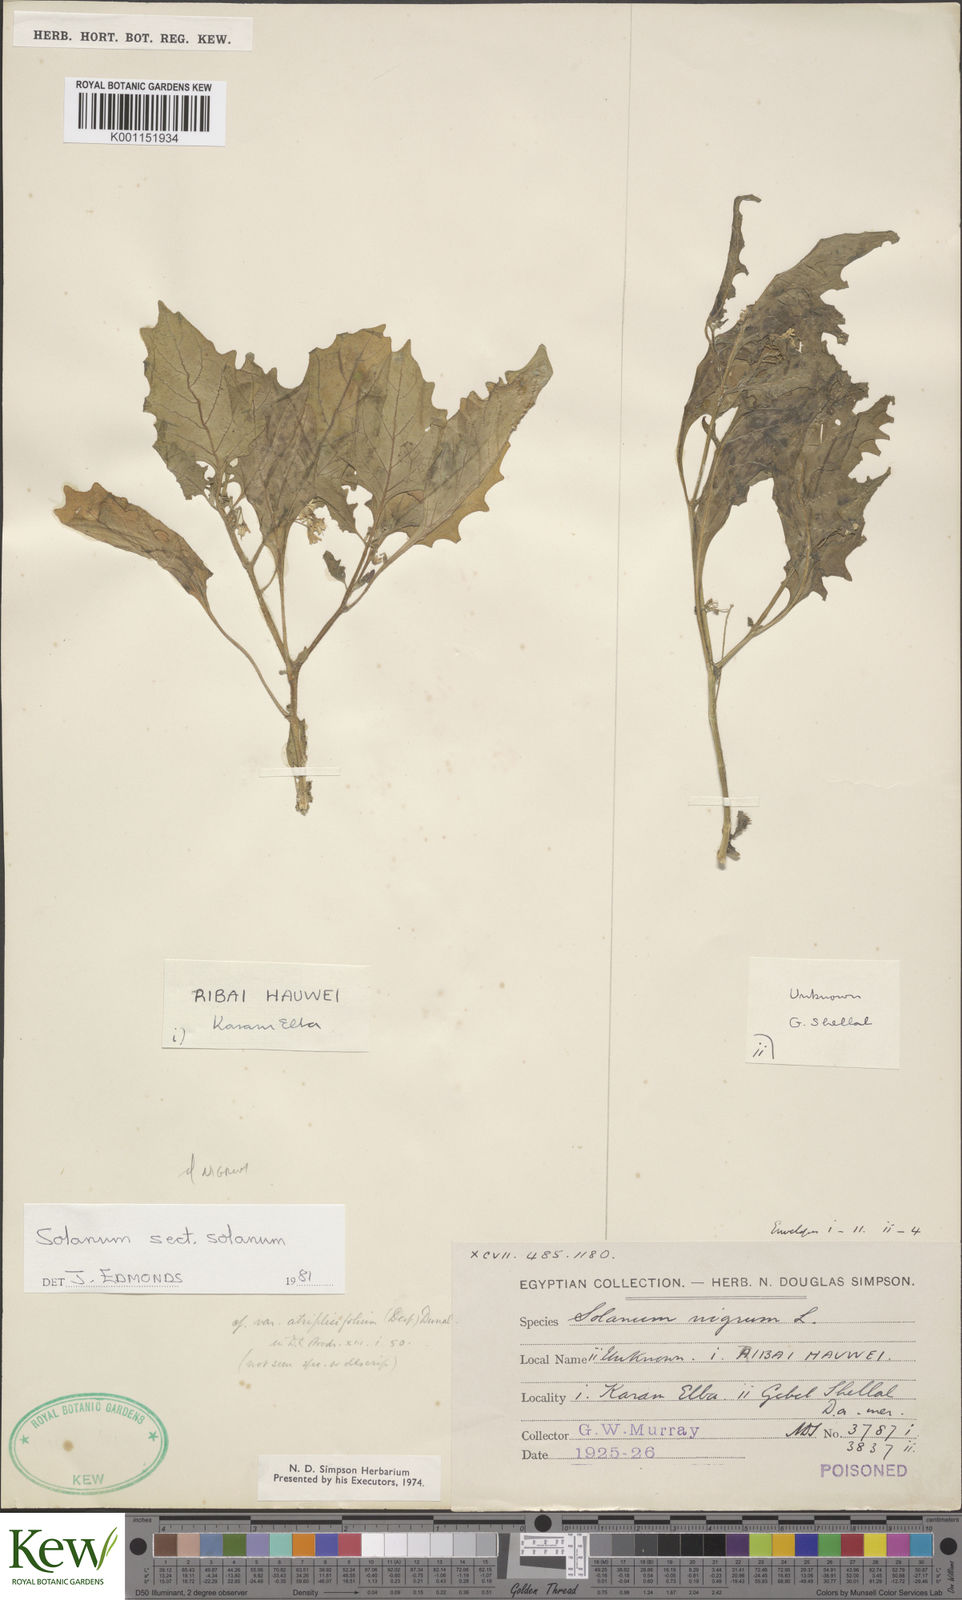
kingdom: Plantae
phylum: Tracheophyta
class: Magnoliopsida
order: Solanales
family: Solanaceae
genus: Solanum
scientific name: Solanum nigrum
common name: Black nightshade
